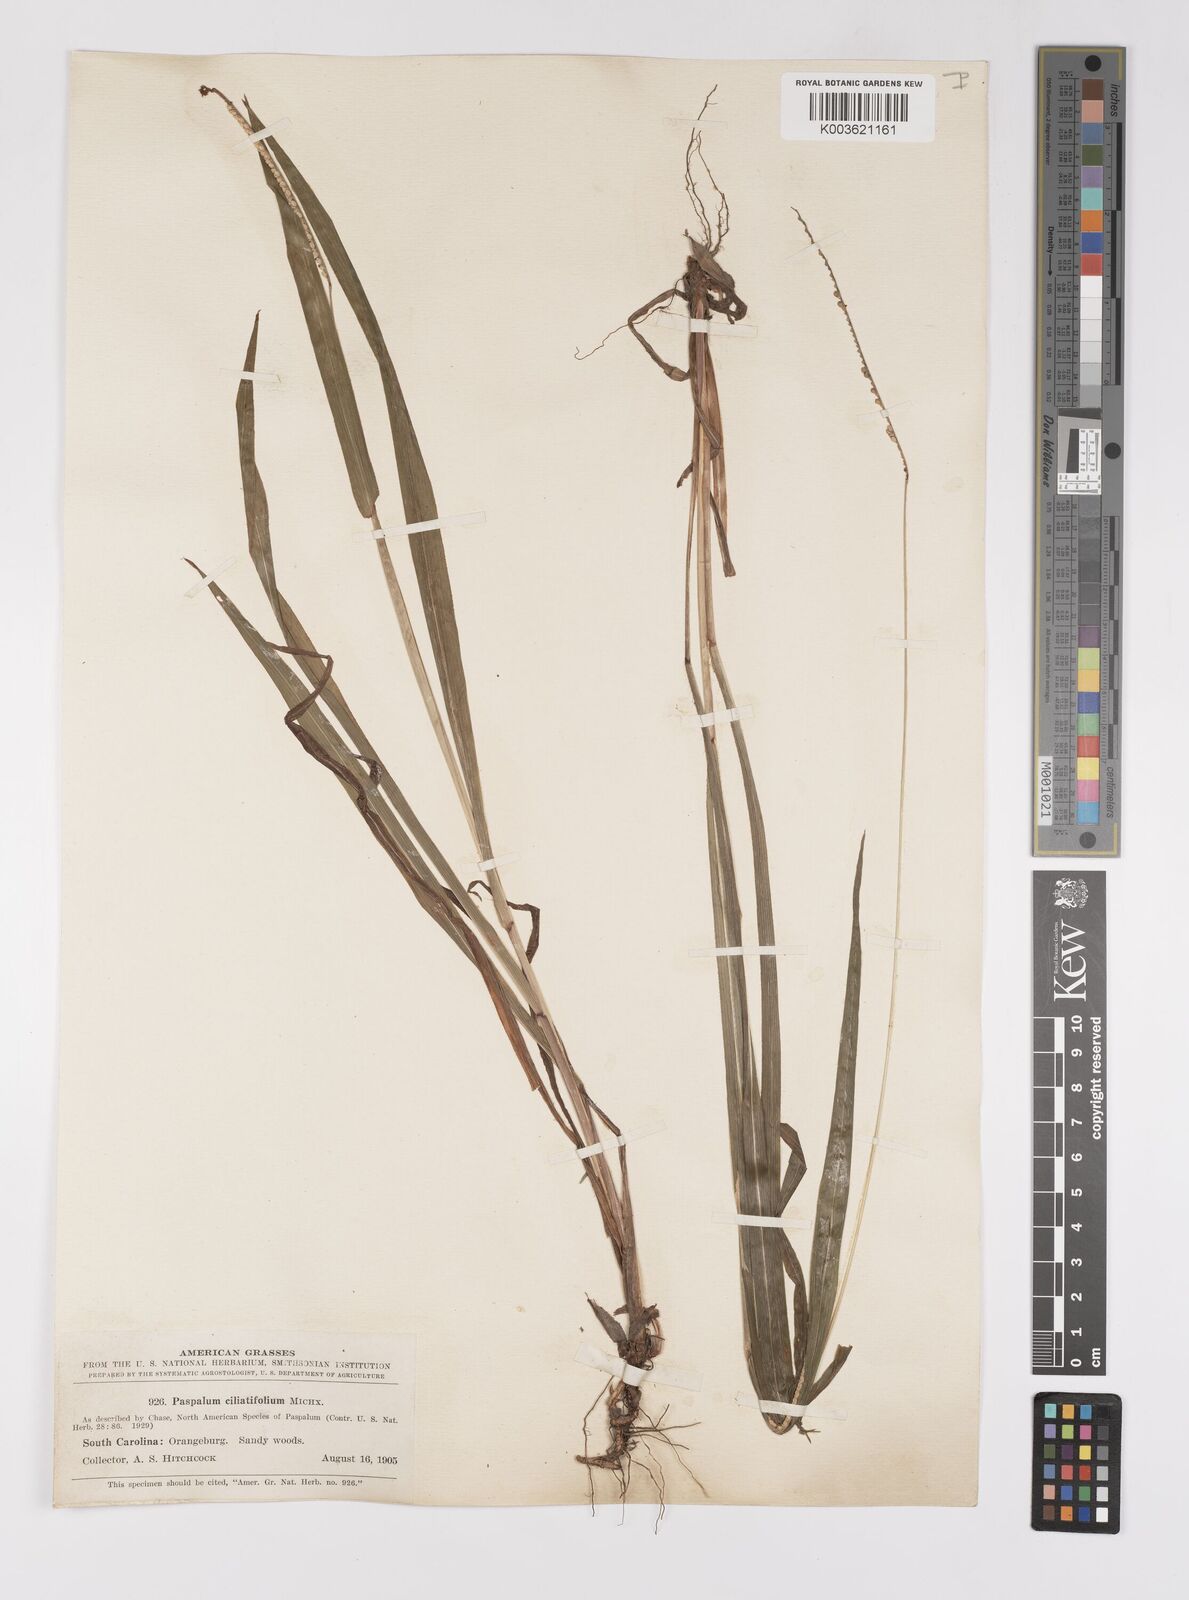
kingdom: Plantae
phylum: Tracheophyta
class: Liliopsida
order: Poales
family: Poaceae
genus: Paspalum
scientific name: Paspalum setaceum
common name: Slender paspalum
